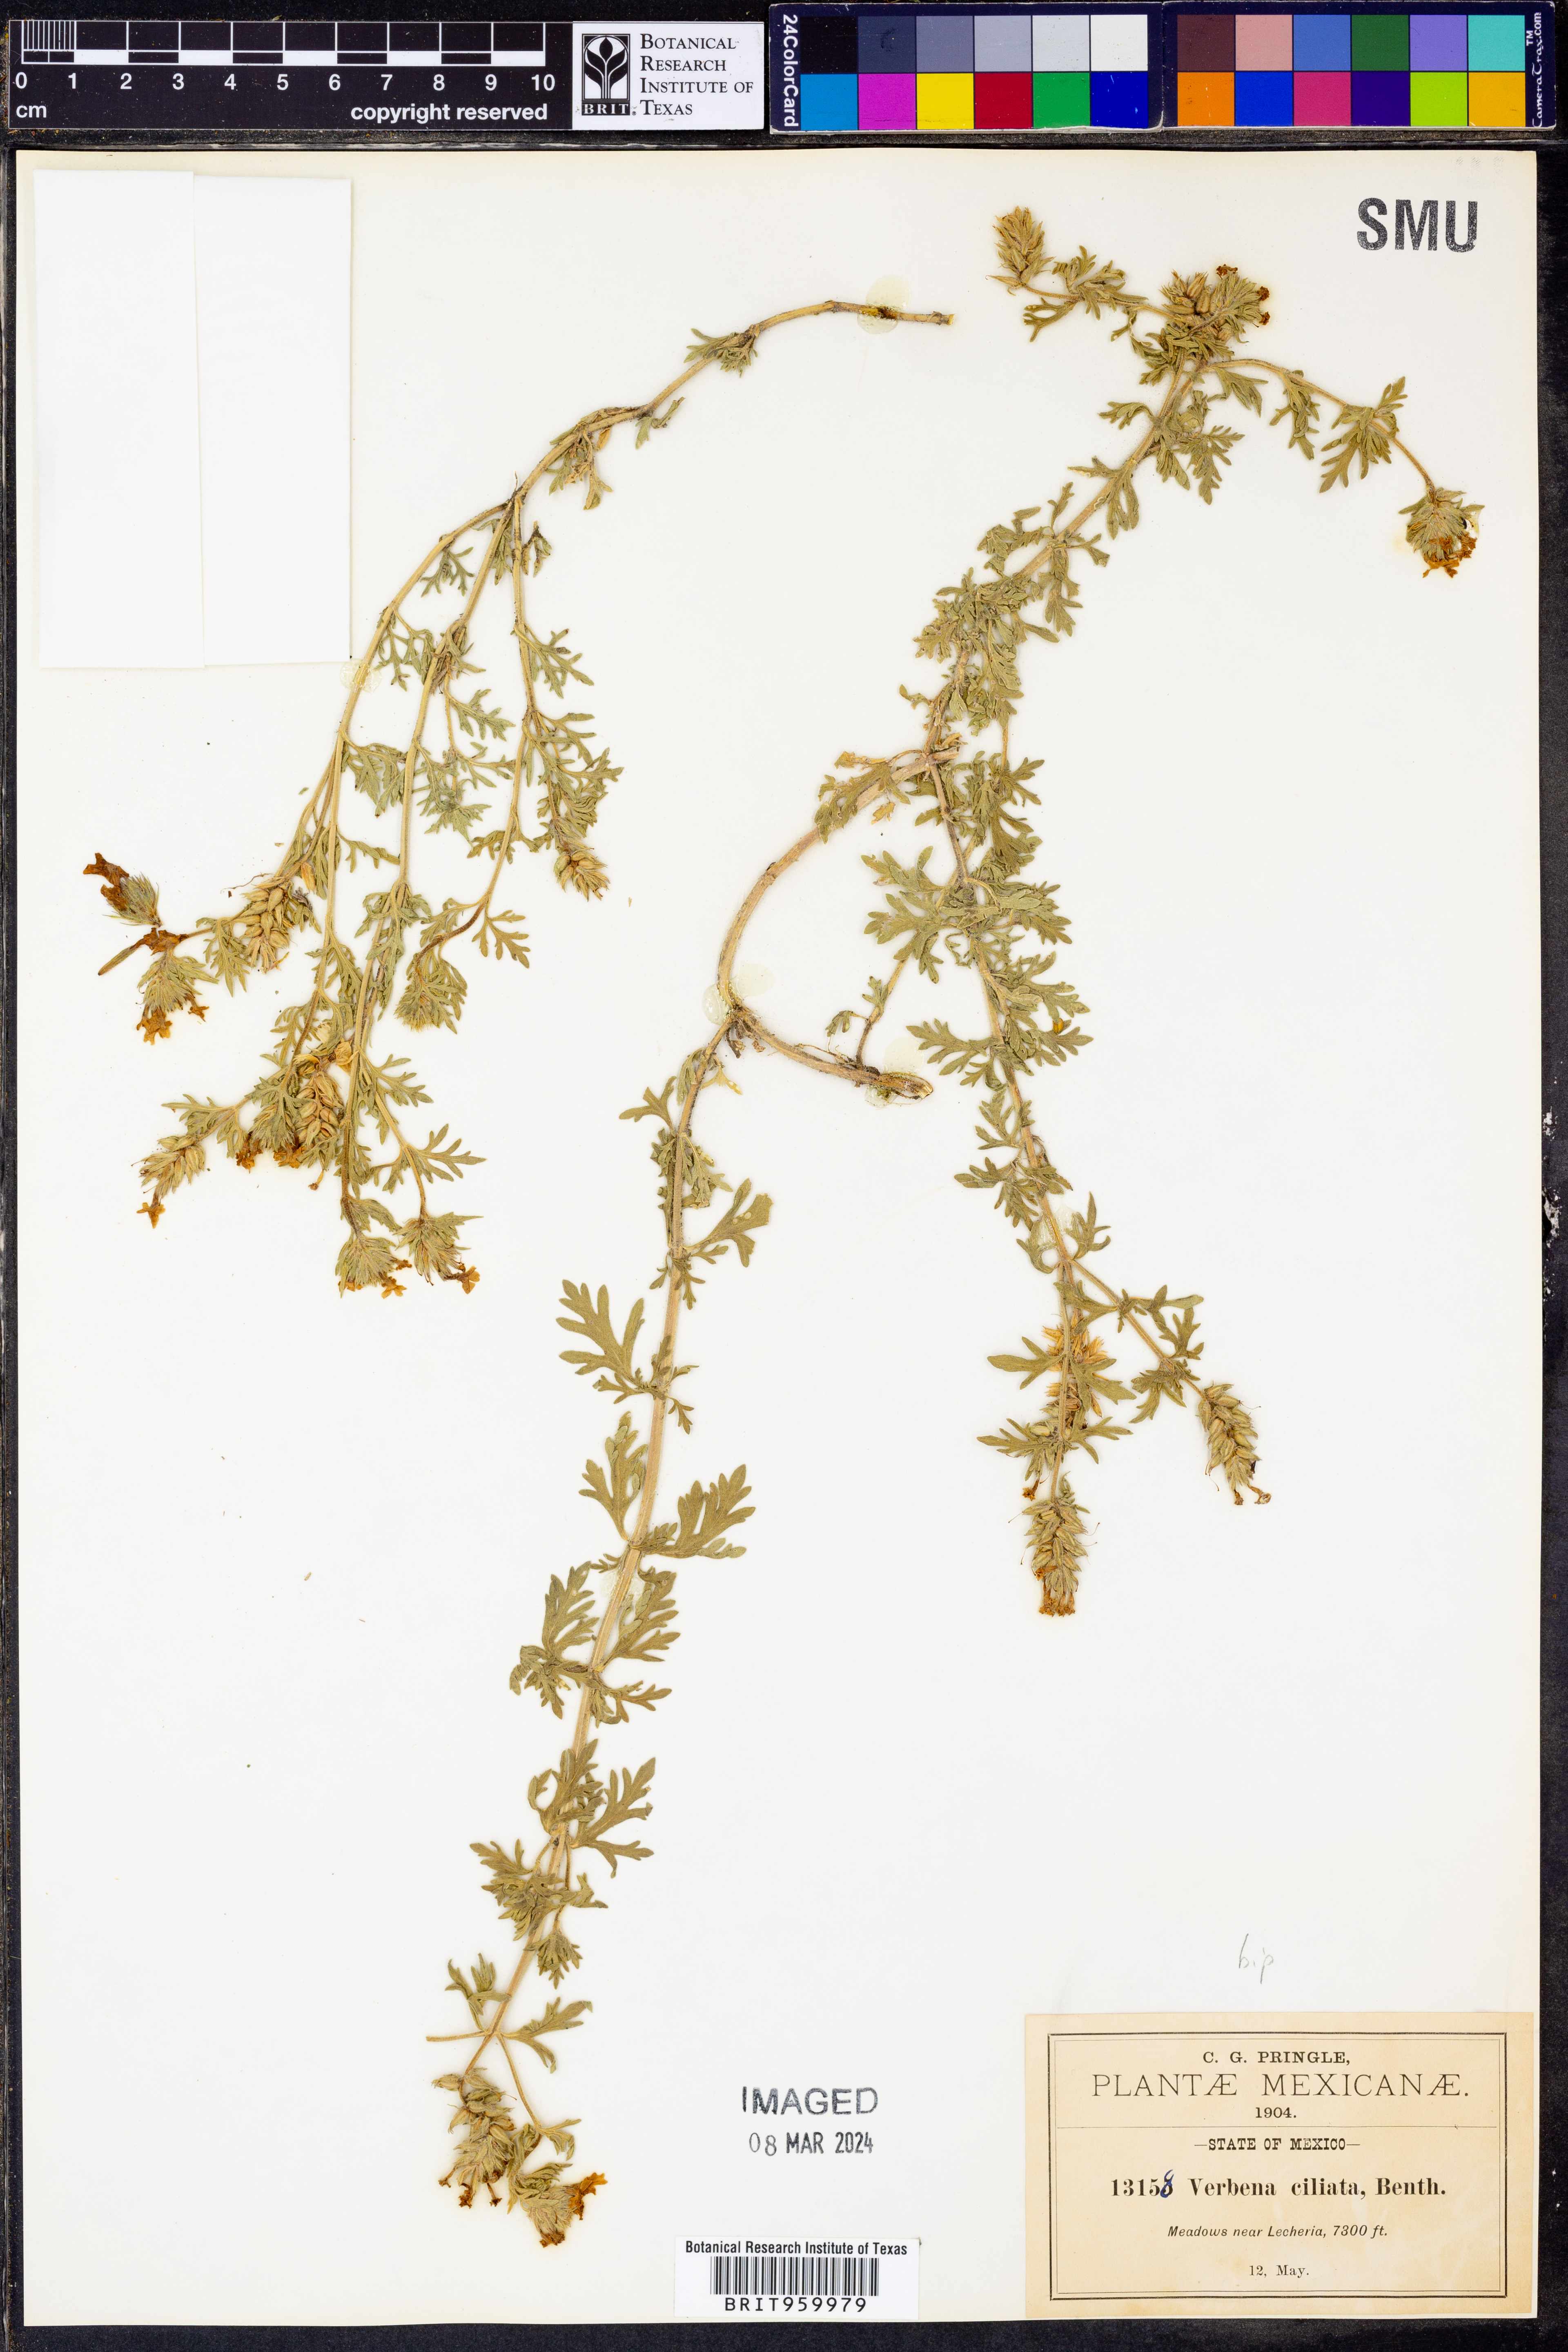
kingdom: Plantae
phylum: Tracheophyta
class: Magnoliopsida
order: Lamiales
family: Verbenaceae
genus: Verbena
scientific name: Verbena
